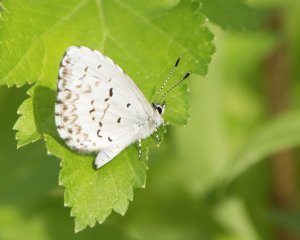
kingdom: Animalia
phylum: Arthropoda
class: Insecta
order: Lepidoptera
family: Lycaenidae
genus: Cyaniris
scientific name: Cyaniris neglecta
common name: Summer Azure
